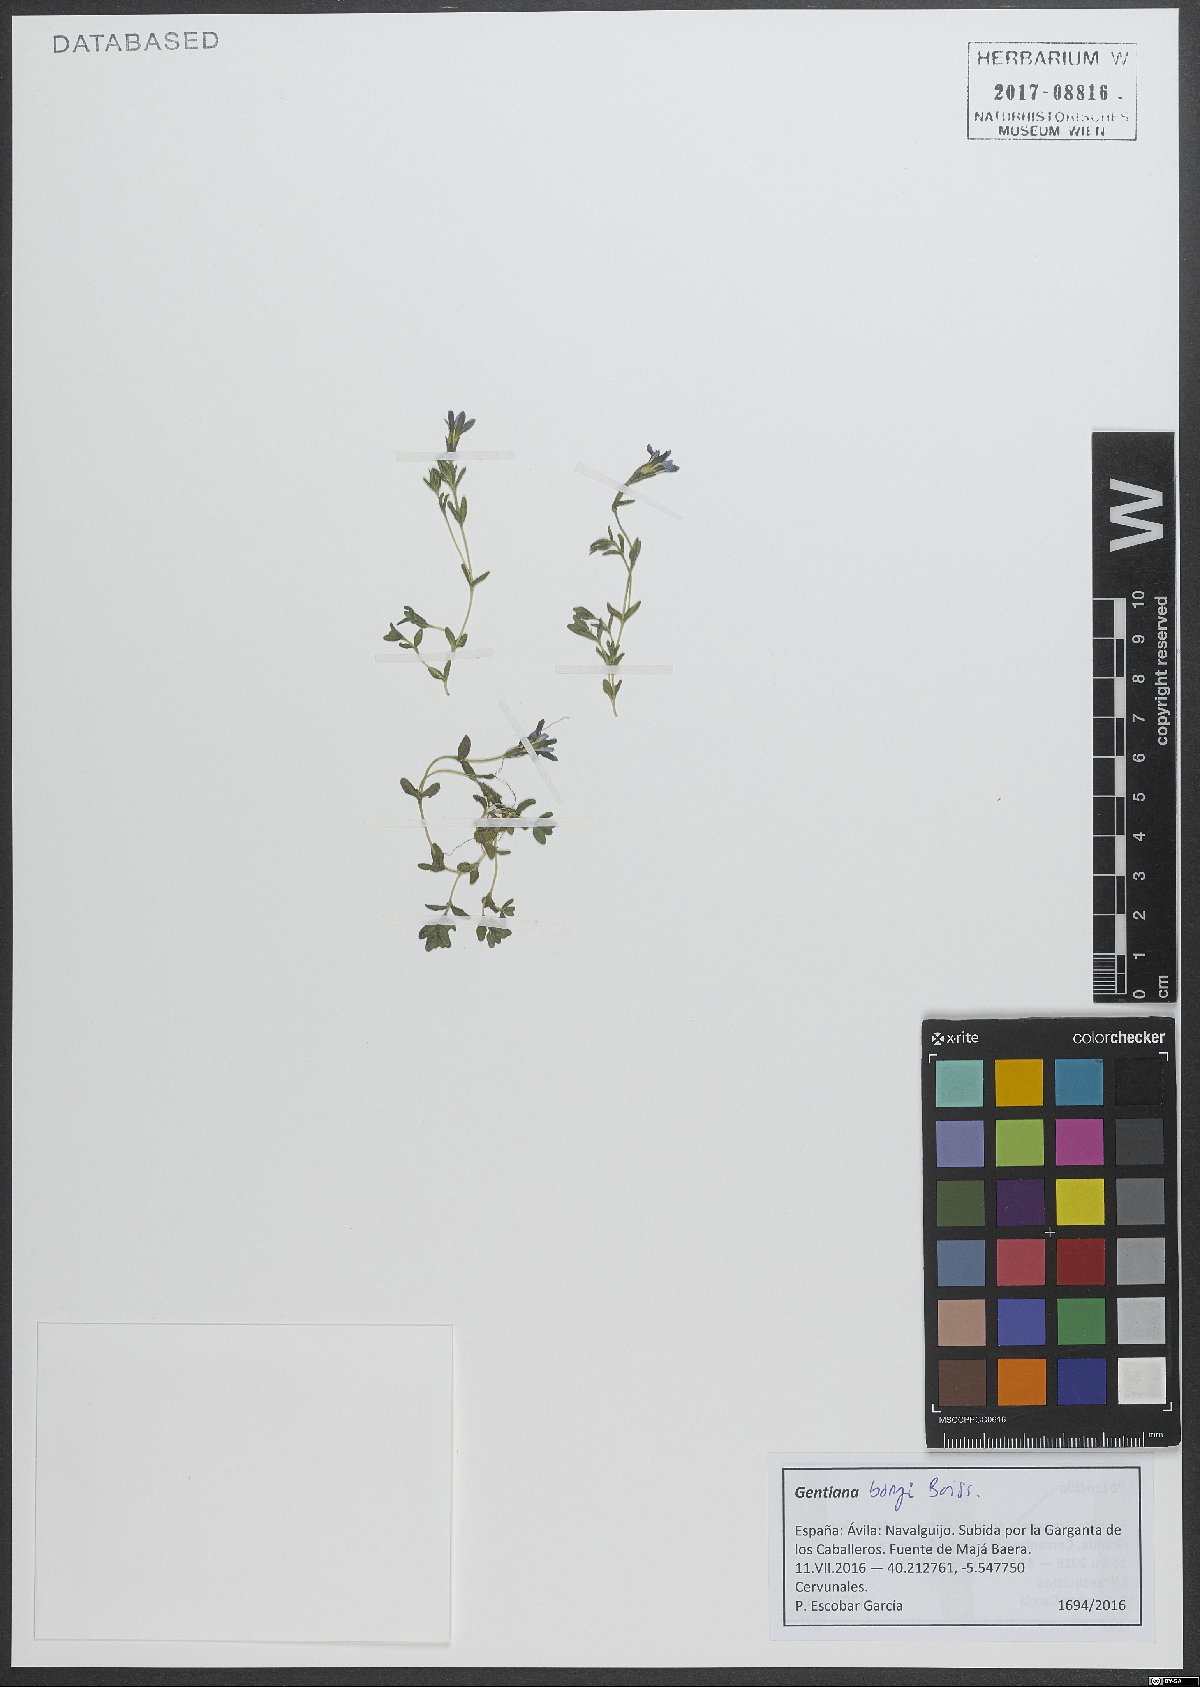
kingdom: Plantae
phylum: Tracheophyta
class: Magnoliopsida
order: Gentianales
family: Gentianaceae
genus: Gentiana
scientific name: Gentiana boryi
